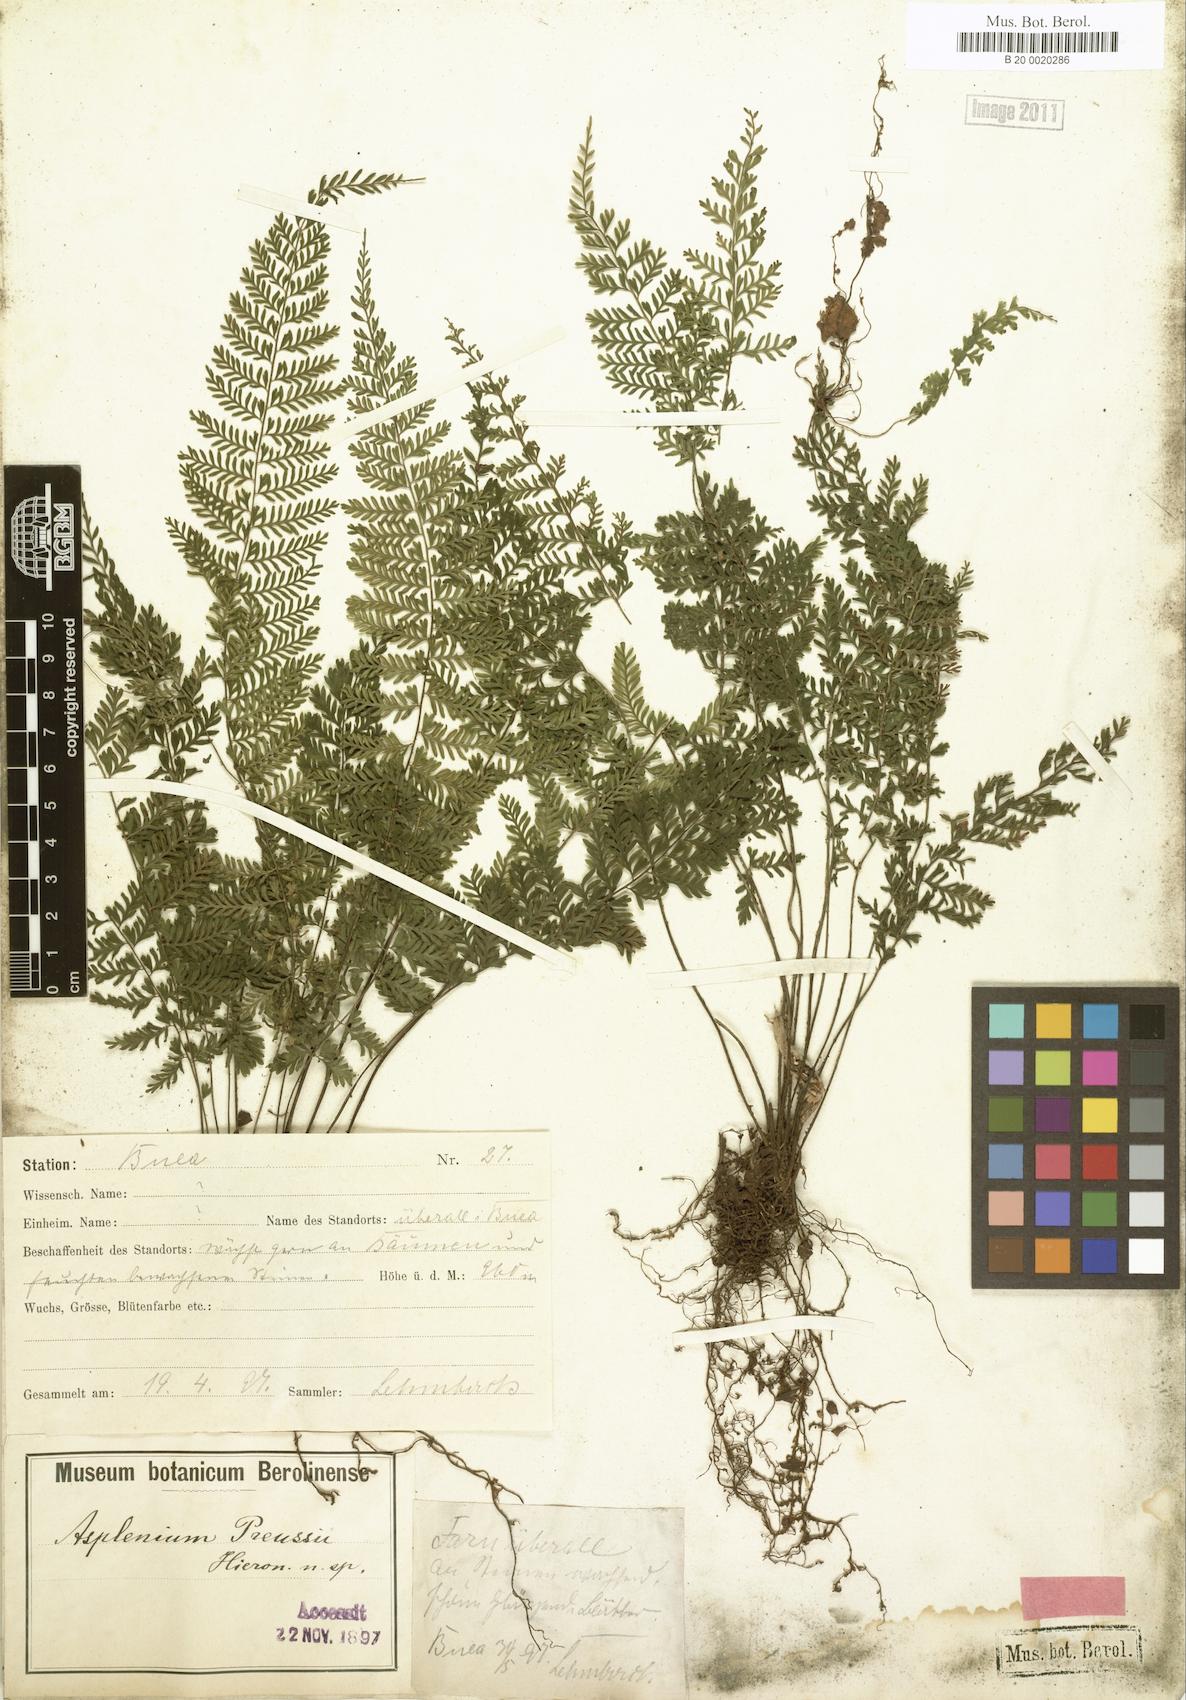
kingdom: Plantae
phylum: Tracheophyta
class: Polypodiopsida
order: Polypodiales
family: Aspleniaceae
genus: Asplenium
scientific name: Asplenium preussii
